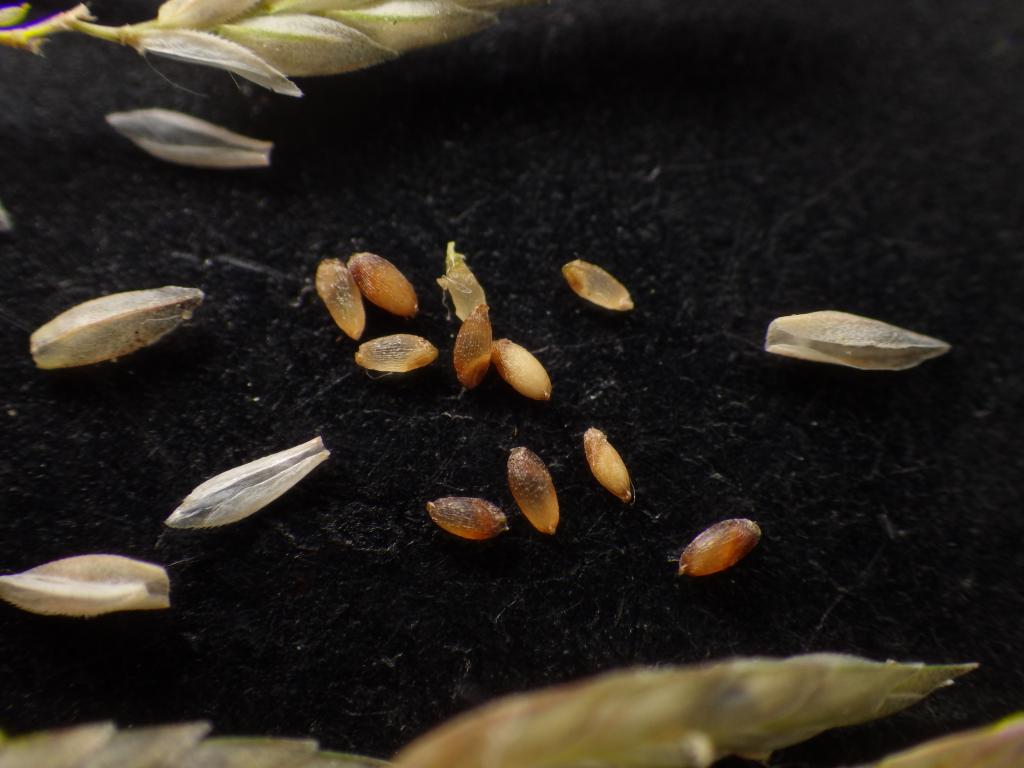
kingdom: Plantae
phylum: Tracheophyta
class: Liliopsida
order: Poales
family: Poaceae
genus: Eragrostis
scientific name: Eragrostis nutans
